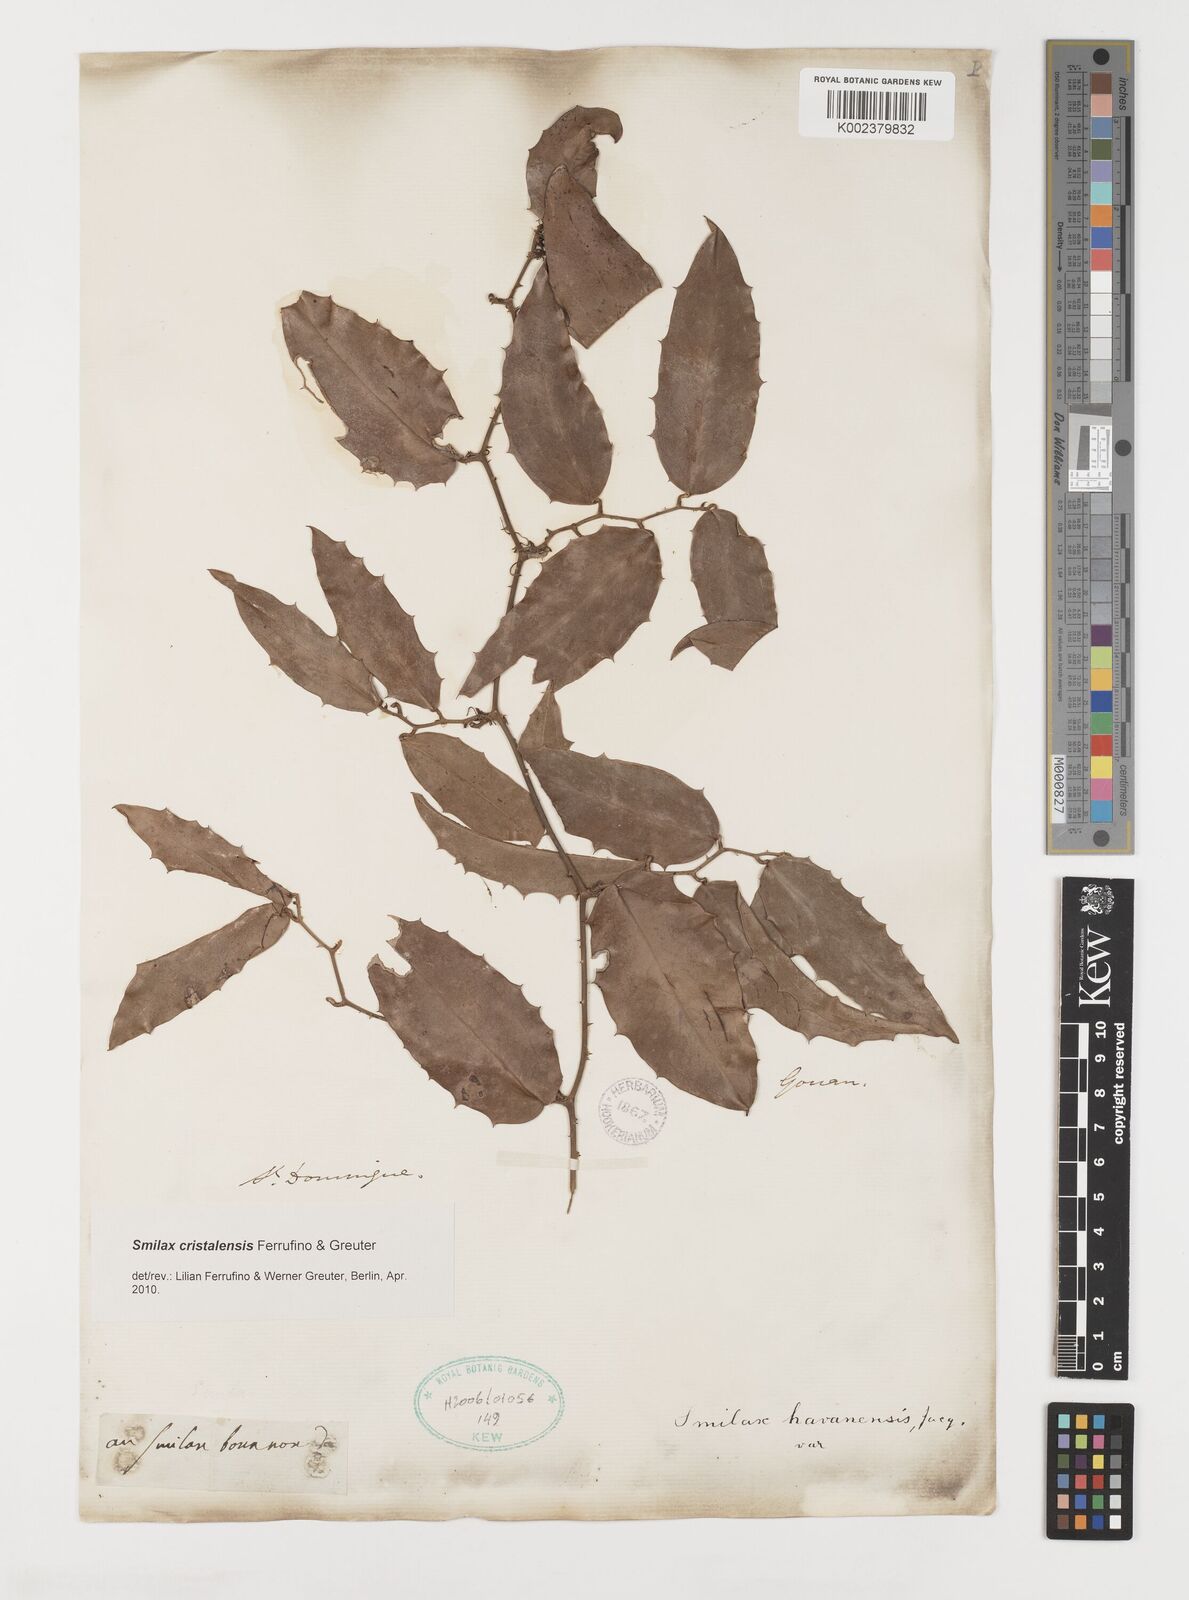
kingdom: Plantae
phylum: Tracheophyta
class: Liliopsida
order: Liliales
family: Smilacaceae
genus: Smilax
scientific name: Smilax cristalensis
